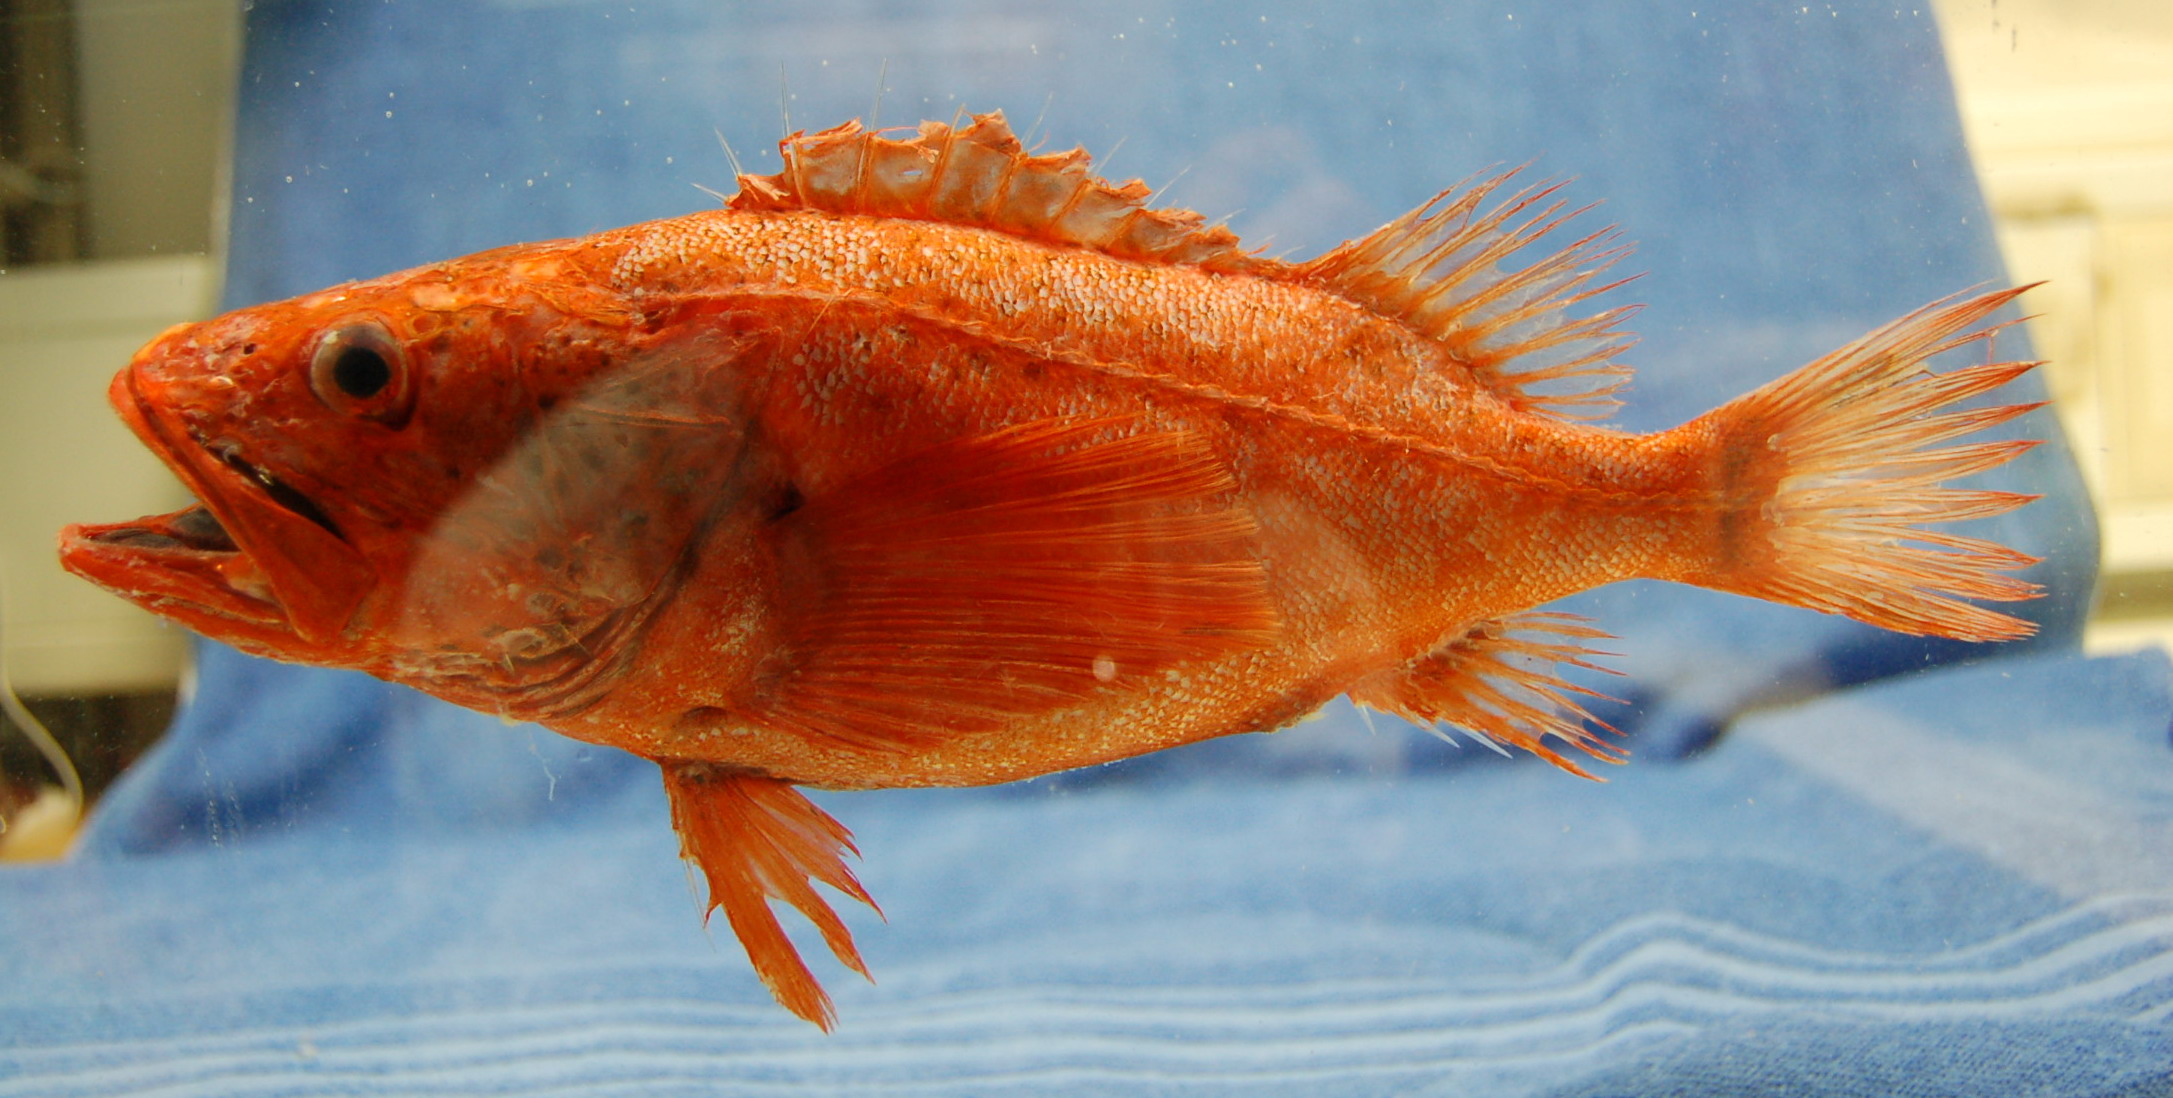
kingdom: Animalia
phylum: Chordata
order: Scorpaeniformes
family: Setarchidae
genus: Setarches
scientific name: Setarches guentheri
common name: Deepwater scorpionfish
